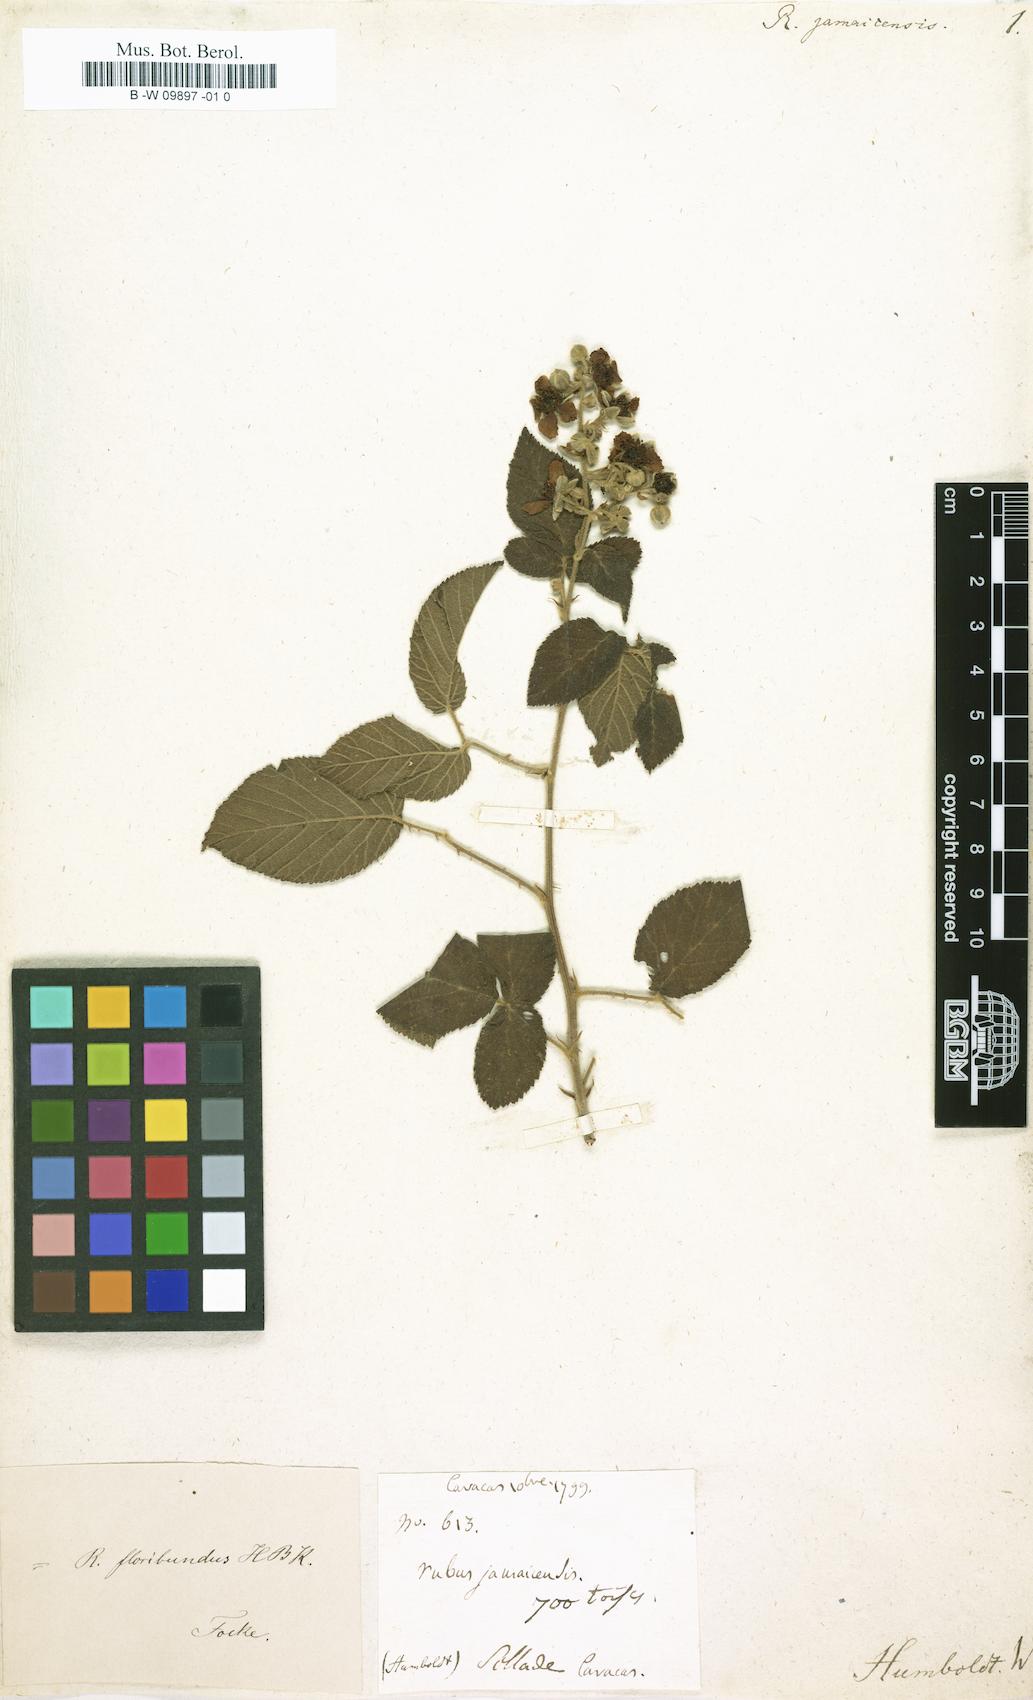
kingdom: Plantae
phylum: Tracheophyta
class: Magnoliopsida
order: Rosales
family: Rosaceae
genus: Rubus
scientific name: Rubus jamaicensis
